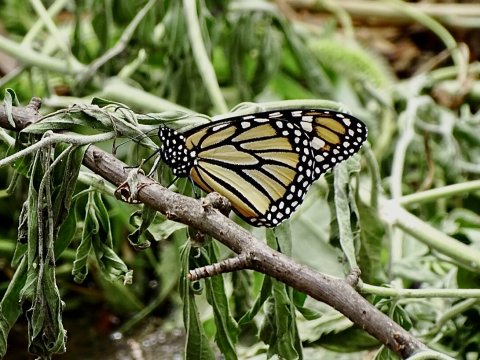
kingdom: Animalia
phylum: Arthropoda
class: Insecta
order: Lepidoptera
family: Nymphalidae
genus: Danaus
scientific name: Danaus plexippus
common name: Monarch
